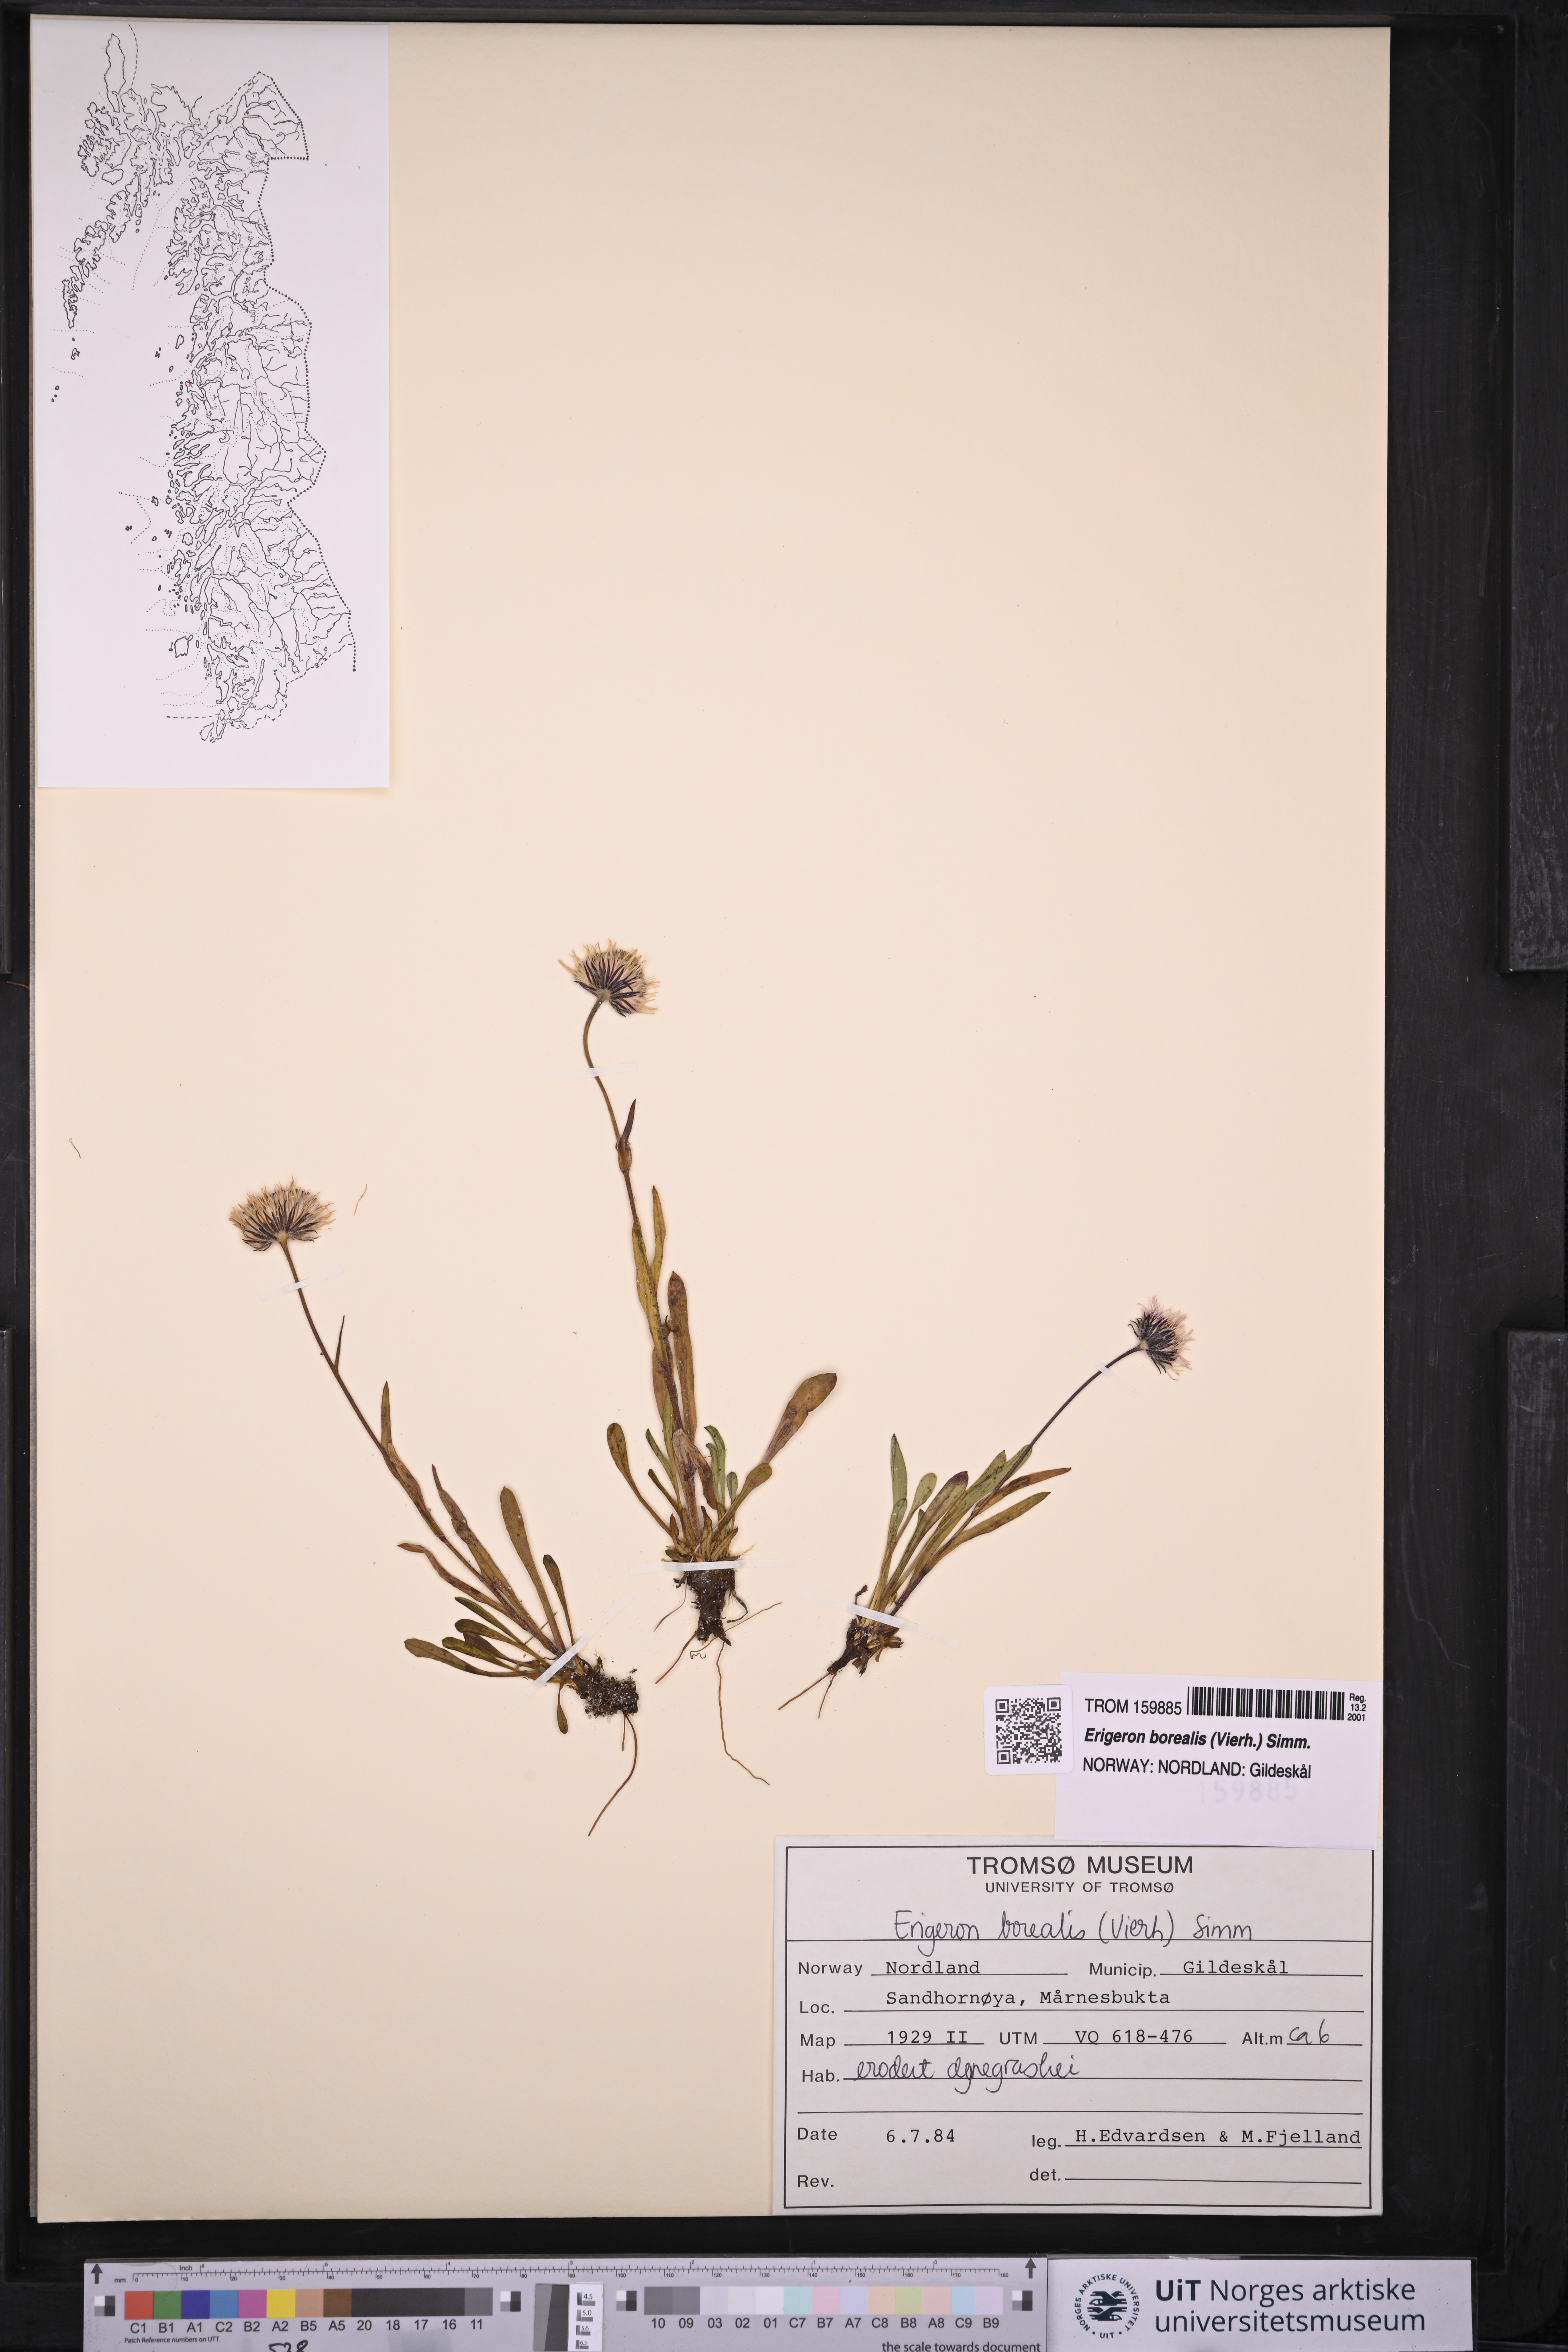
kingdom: Plantae
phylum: Tracheophyta
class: Magnoliopsida
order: Asterales
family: Asteraceae
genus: Erigeron
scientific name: Erigeron borealis
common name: Alpine fleabane
